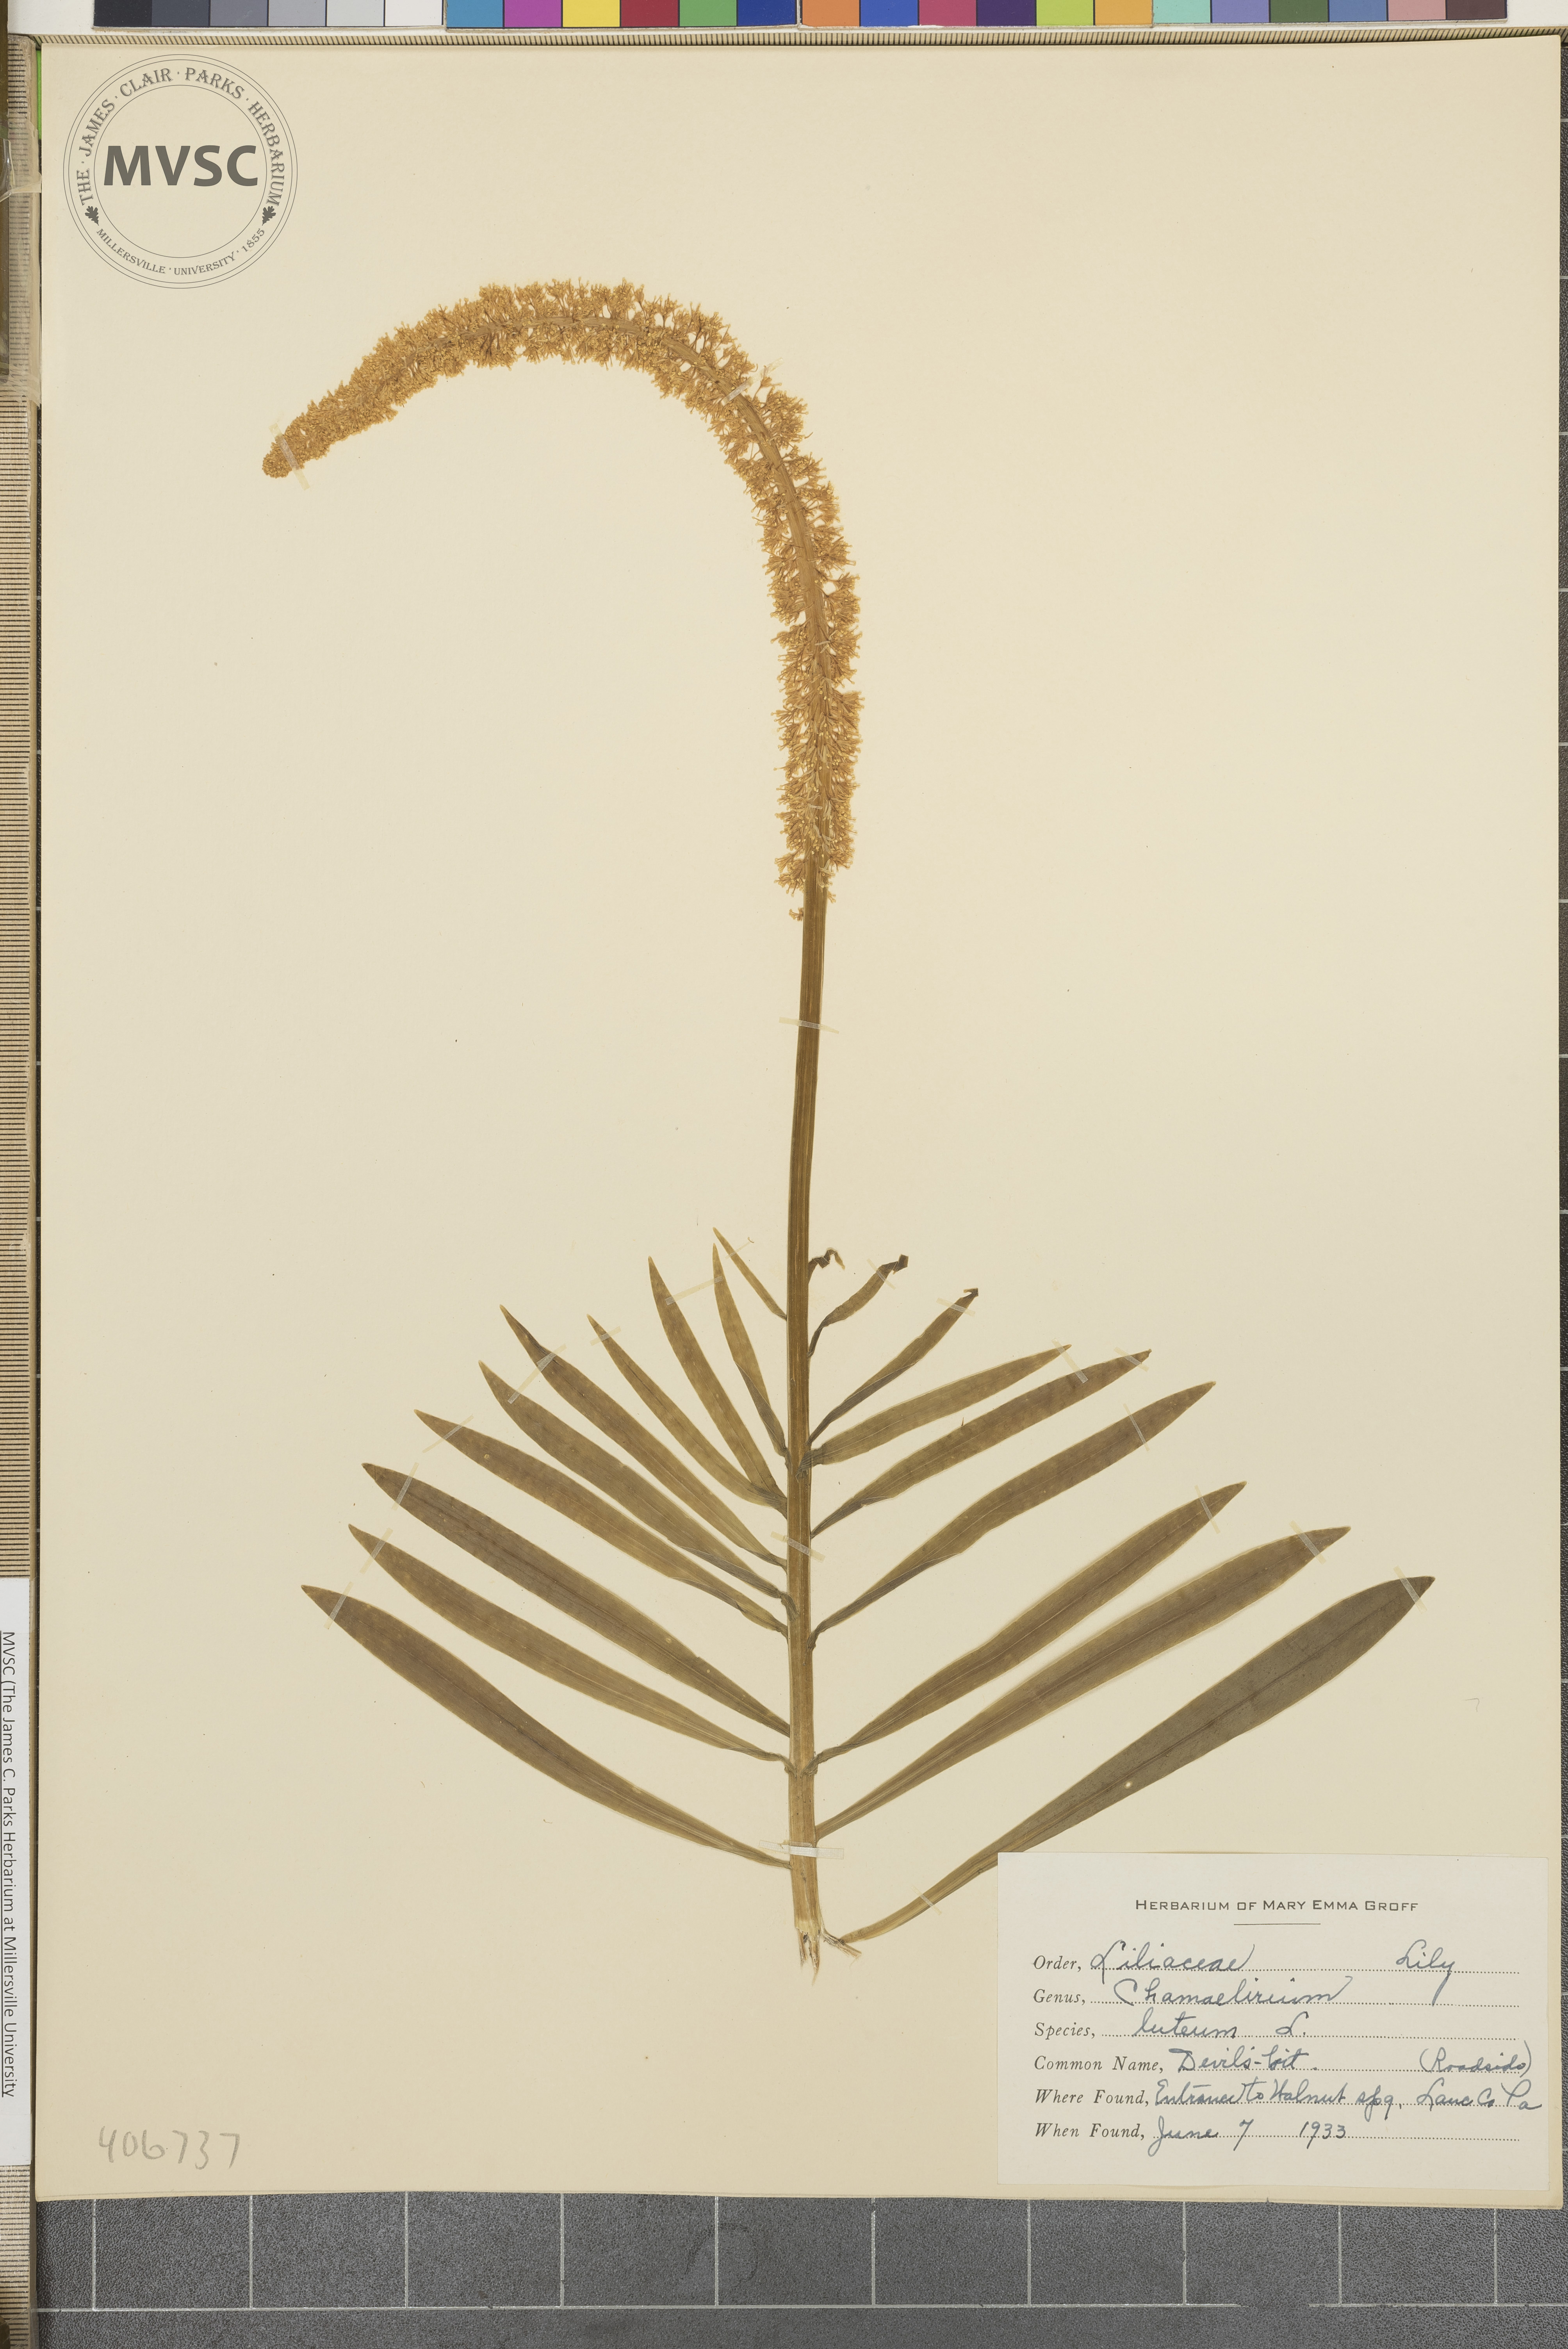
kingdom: Plantae
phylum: Tracheophyta
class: Liliopsida
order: Liliales
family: Melanthiaceae
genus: Chamaelirium
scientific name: Chamaelirium luteum
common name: Devil's bit
